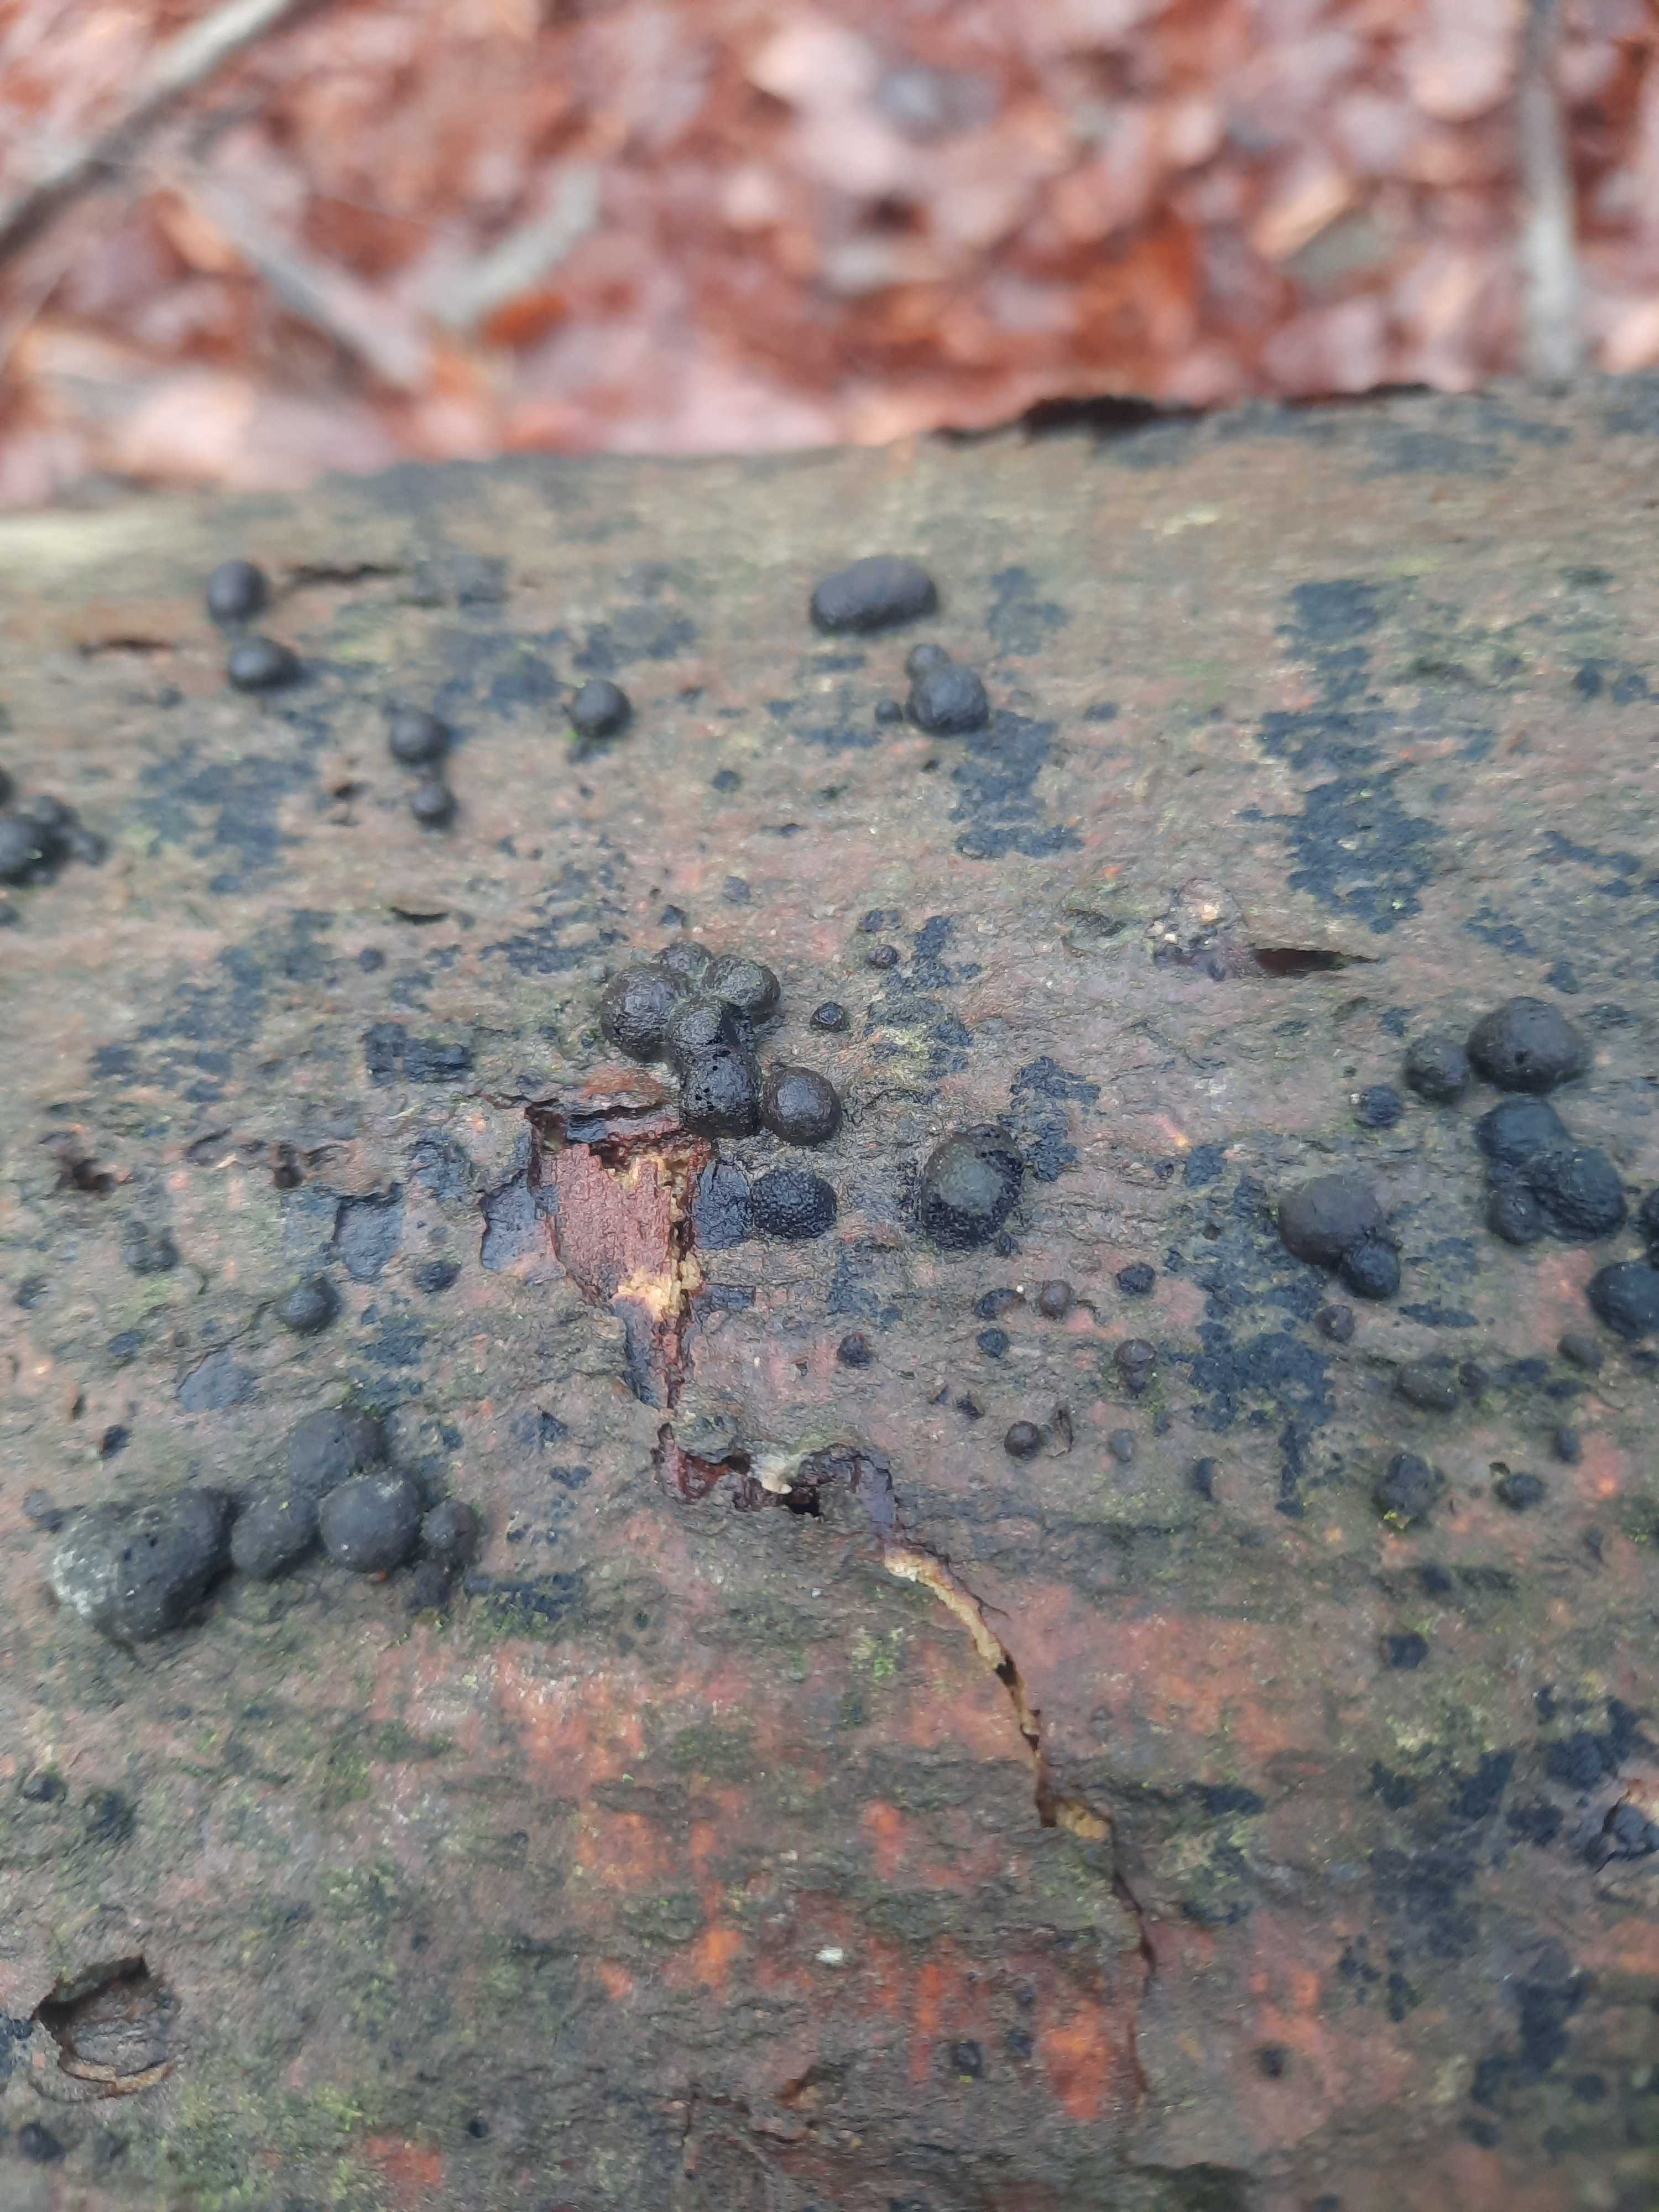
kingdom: Fungi
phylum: Ascomycota
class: Sordariomycetes
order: Xylariales
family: Hypoxylaceae
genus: Jackrogersella
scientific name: Jackrogersella cohaerens
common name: sammenflydende kulbær
